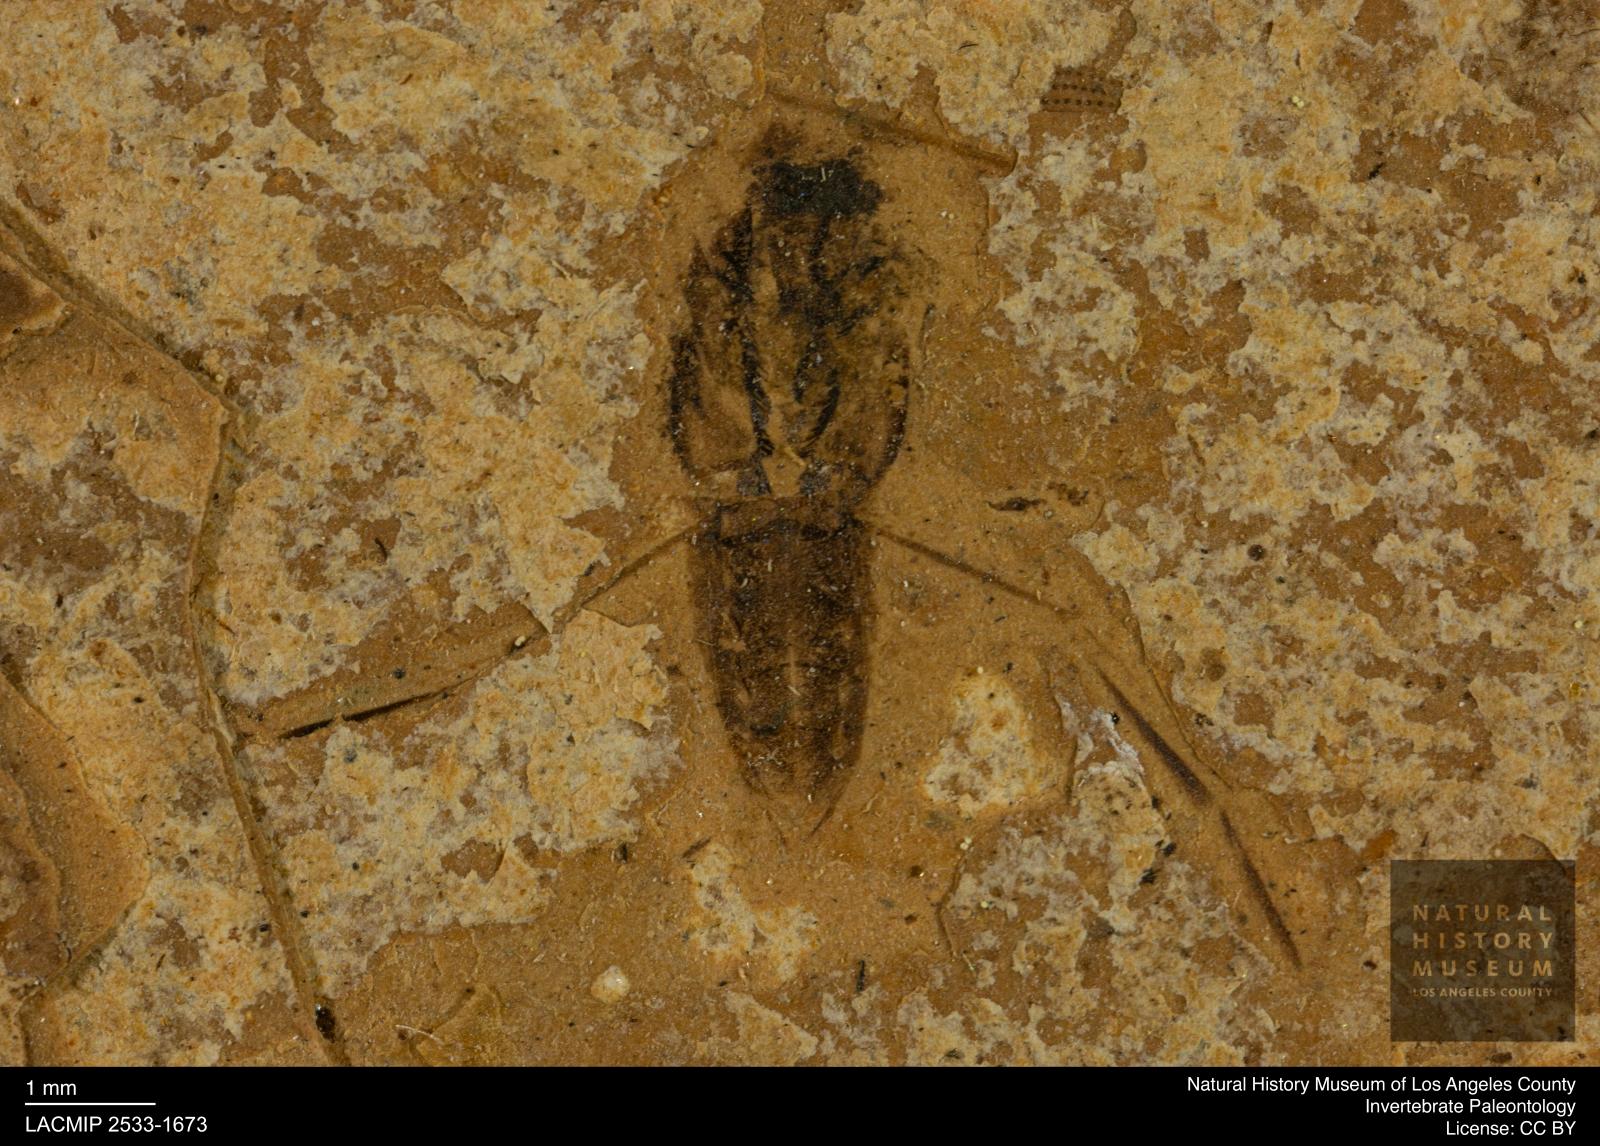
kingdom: Animalia
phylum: Arthropoda
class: Insecta
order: Hemiptera
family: Notonectidae
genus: Notonecta
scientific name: Notonecta
